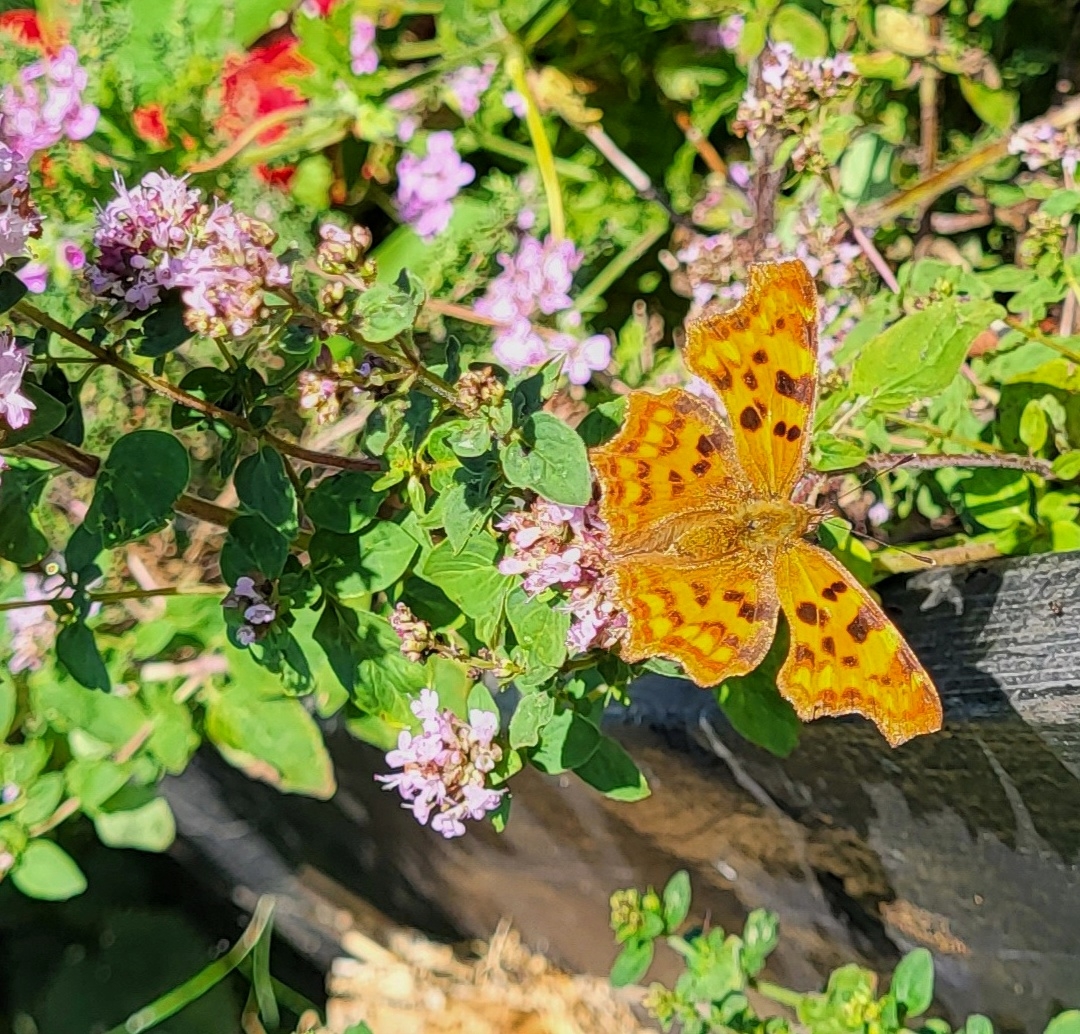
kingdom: Animalia
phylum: Arthropoda
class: Insecta
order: Lepidoptera
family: Nymphalidae
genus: Polygonia
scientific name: Polygonia c-album
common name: Det hvide C
